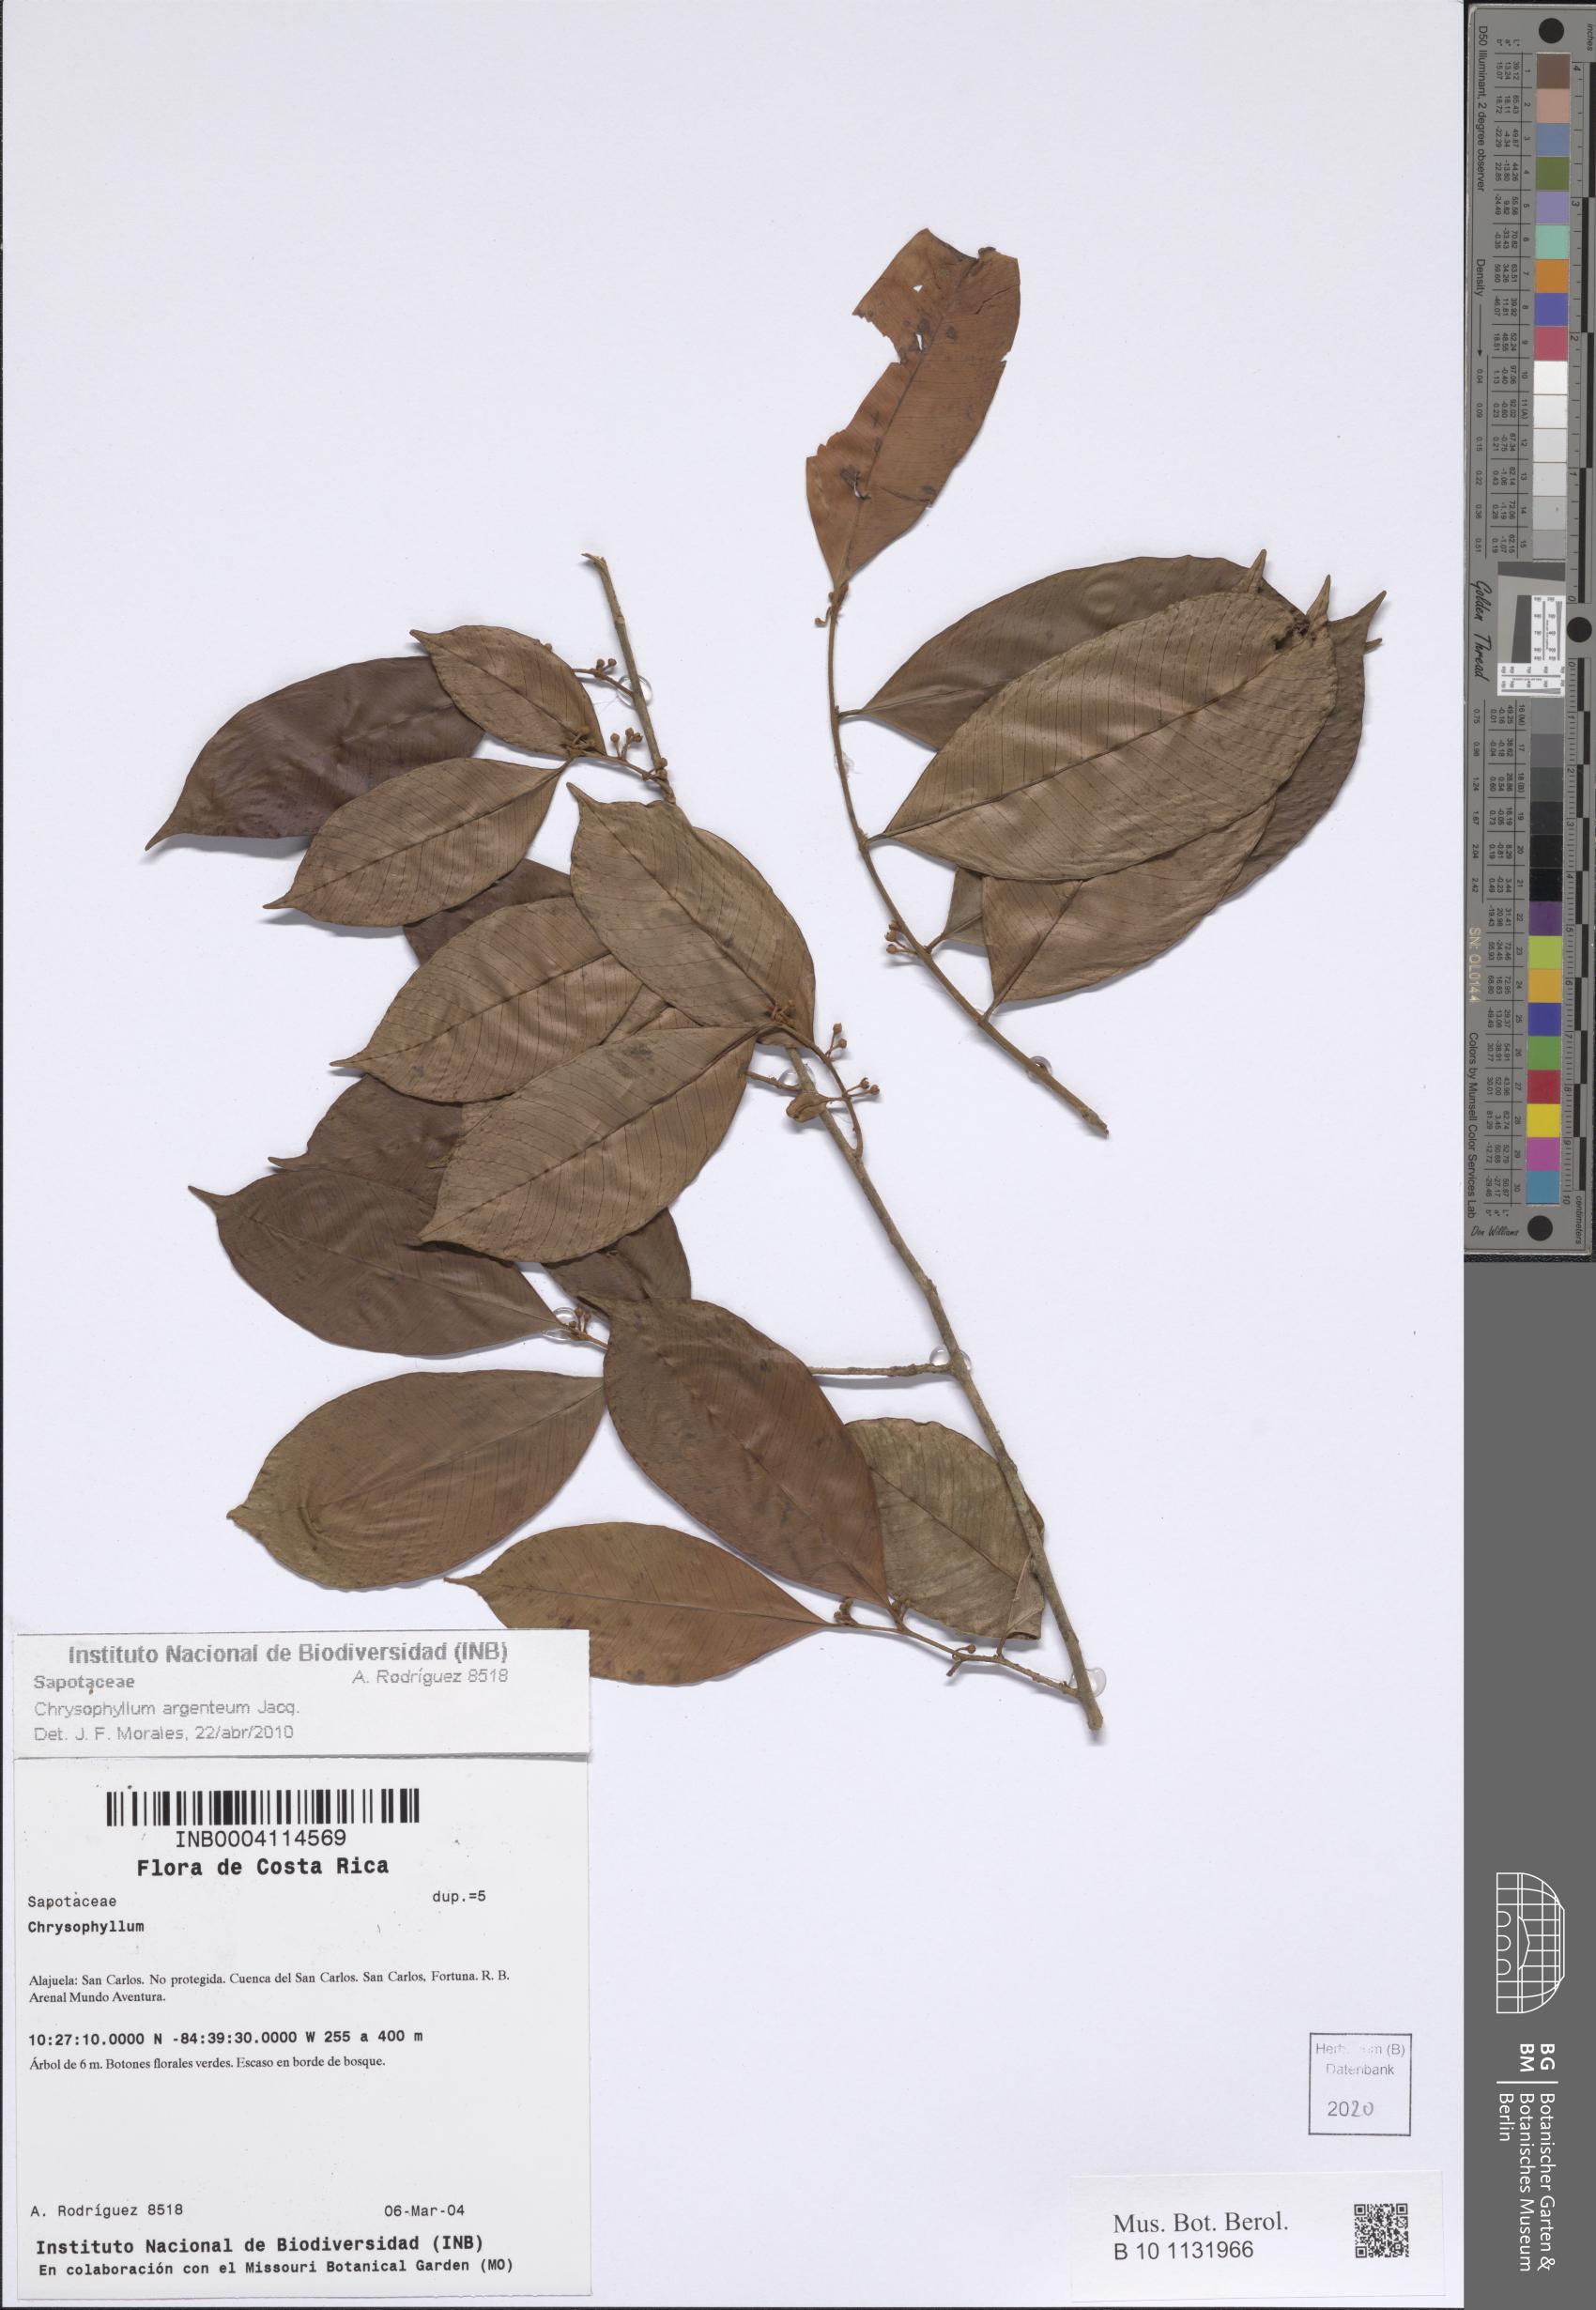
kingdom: Plantae
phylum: Tracheophyta
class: Magnoliopsida
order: Ericales
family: Sapotaceae
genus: Chrysophyllum
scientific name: Chrysophyllum argenteum
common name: Smooth star apple
